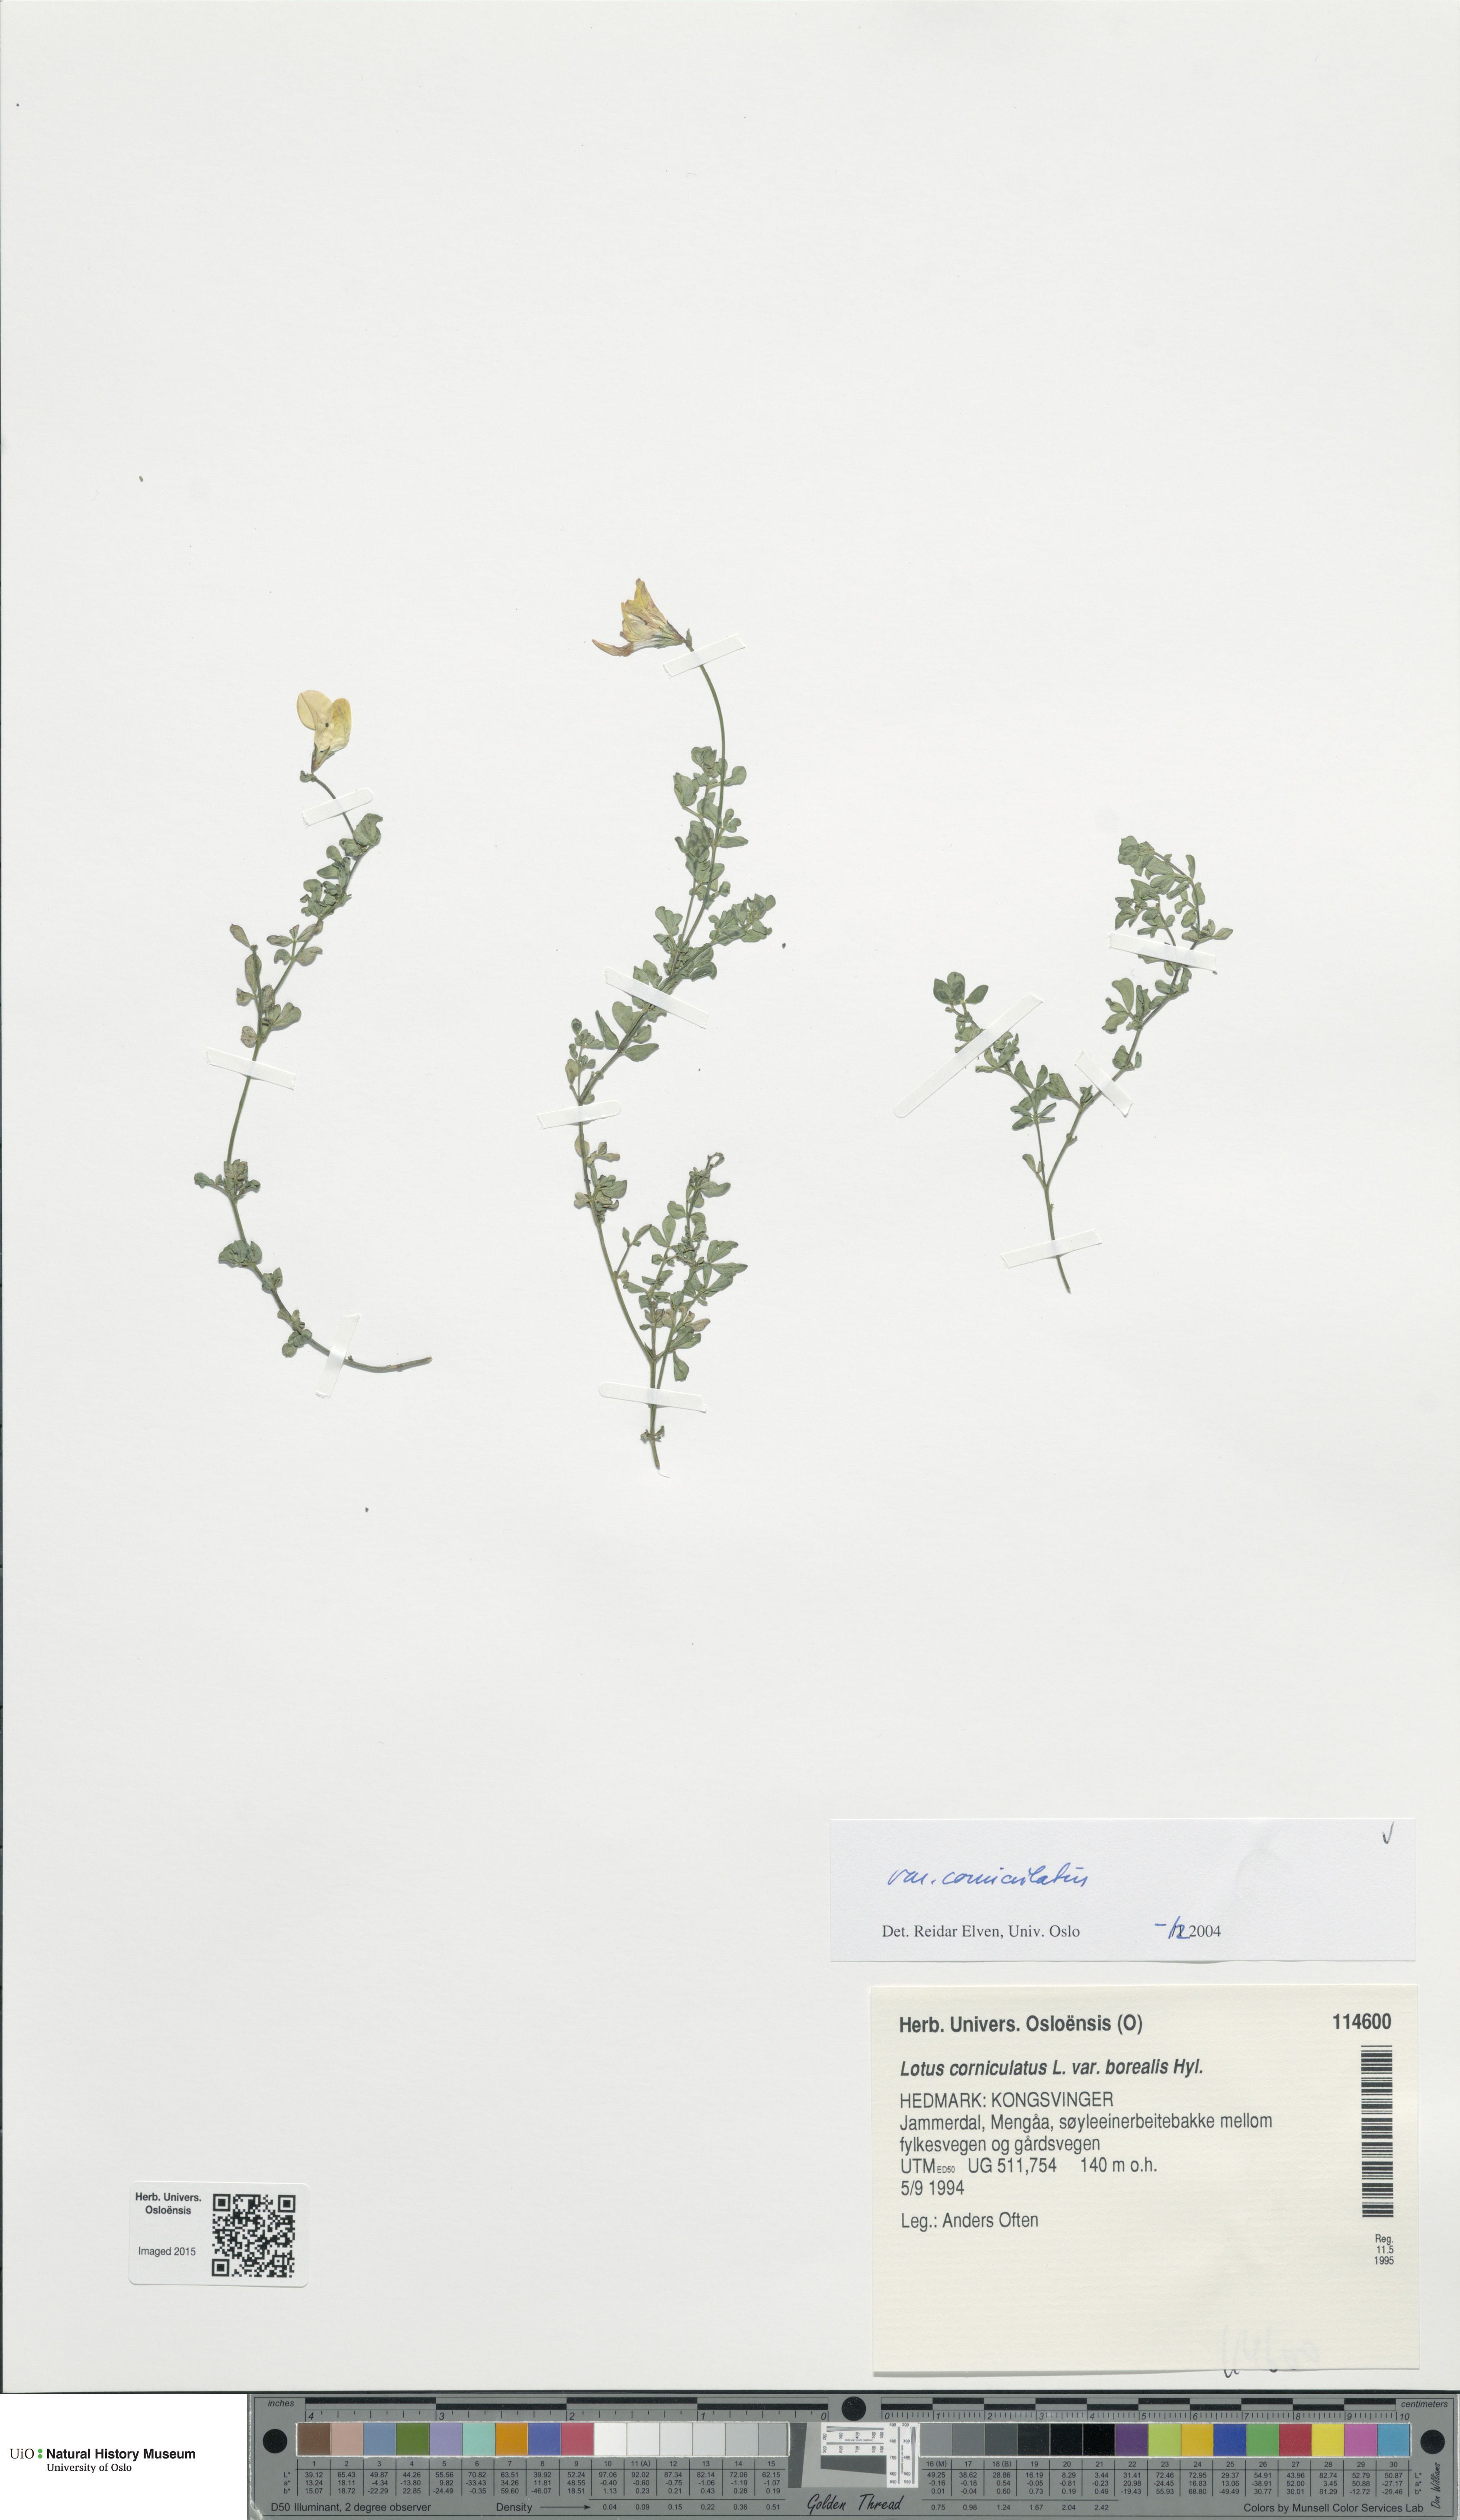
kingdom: Plantae
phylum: Tracheophyta
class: Magnoliopsida
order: Fabales
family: Fabaceae
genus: Lotus
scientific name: Lotus corniculatus
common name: Common bird's-foot-trefoil
